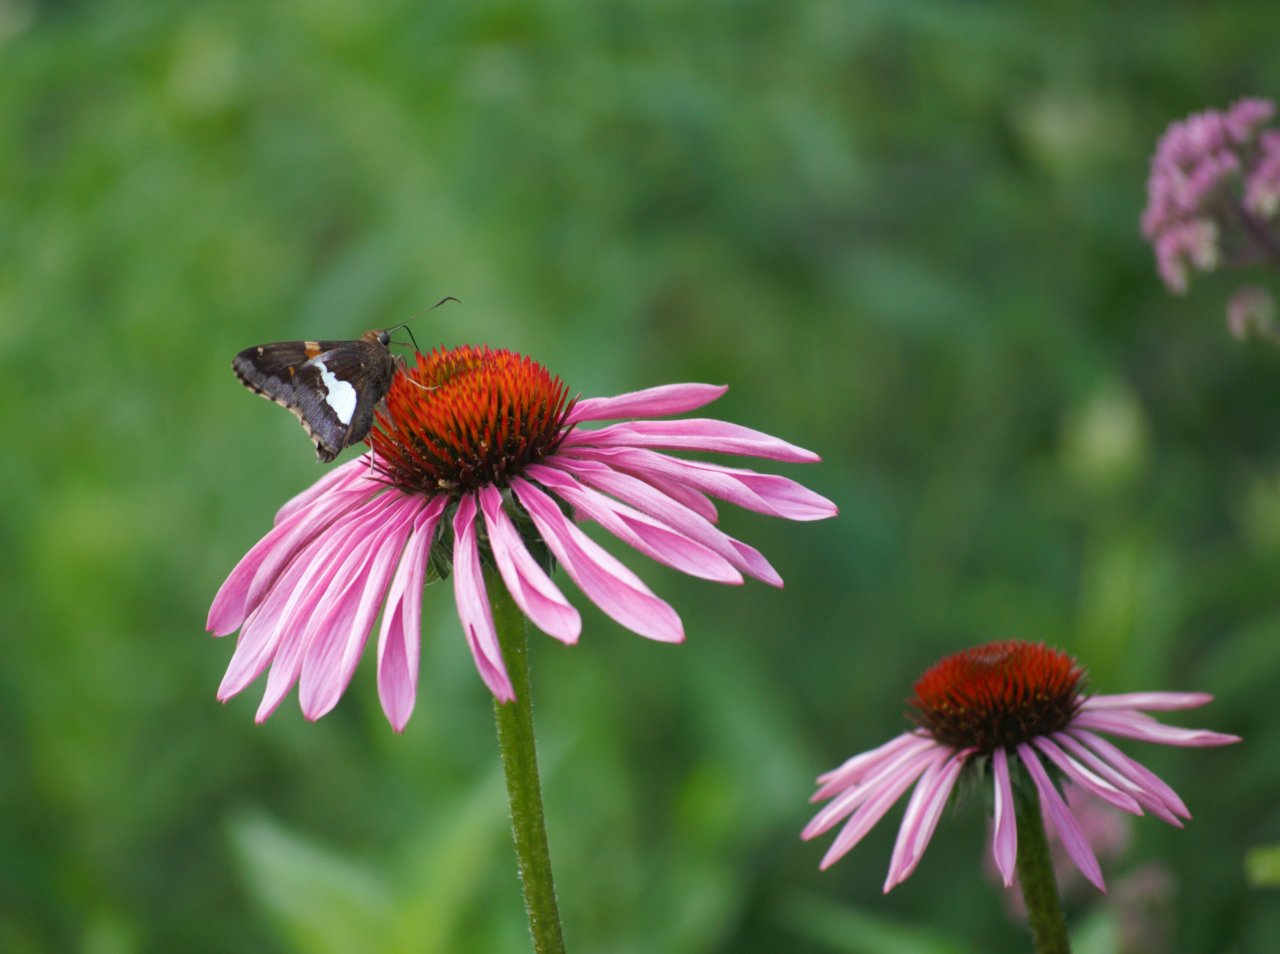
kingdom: Animalia
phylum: Arthropoda
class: Insecta
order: Lepidoptera
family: Hesperiidae
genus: Epargyreus
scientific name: Epargyreus clarus
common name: Silver-spotted Skipper
